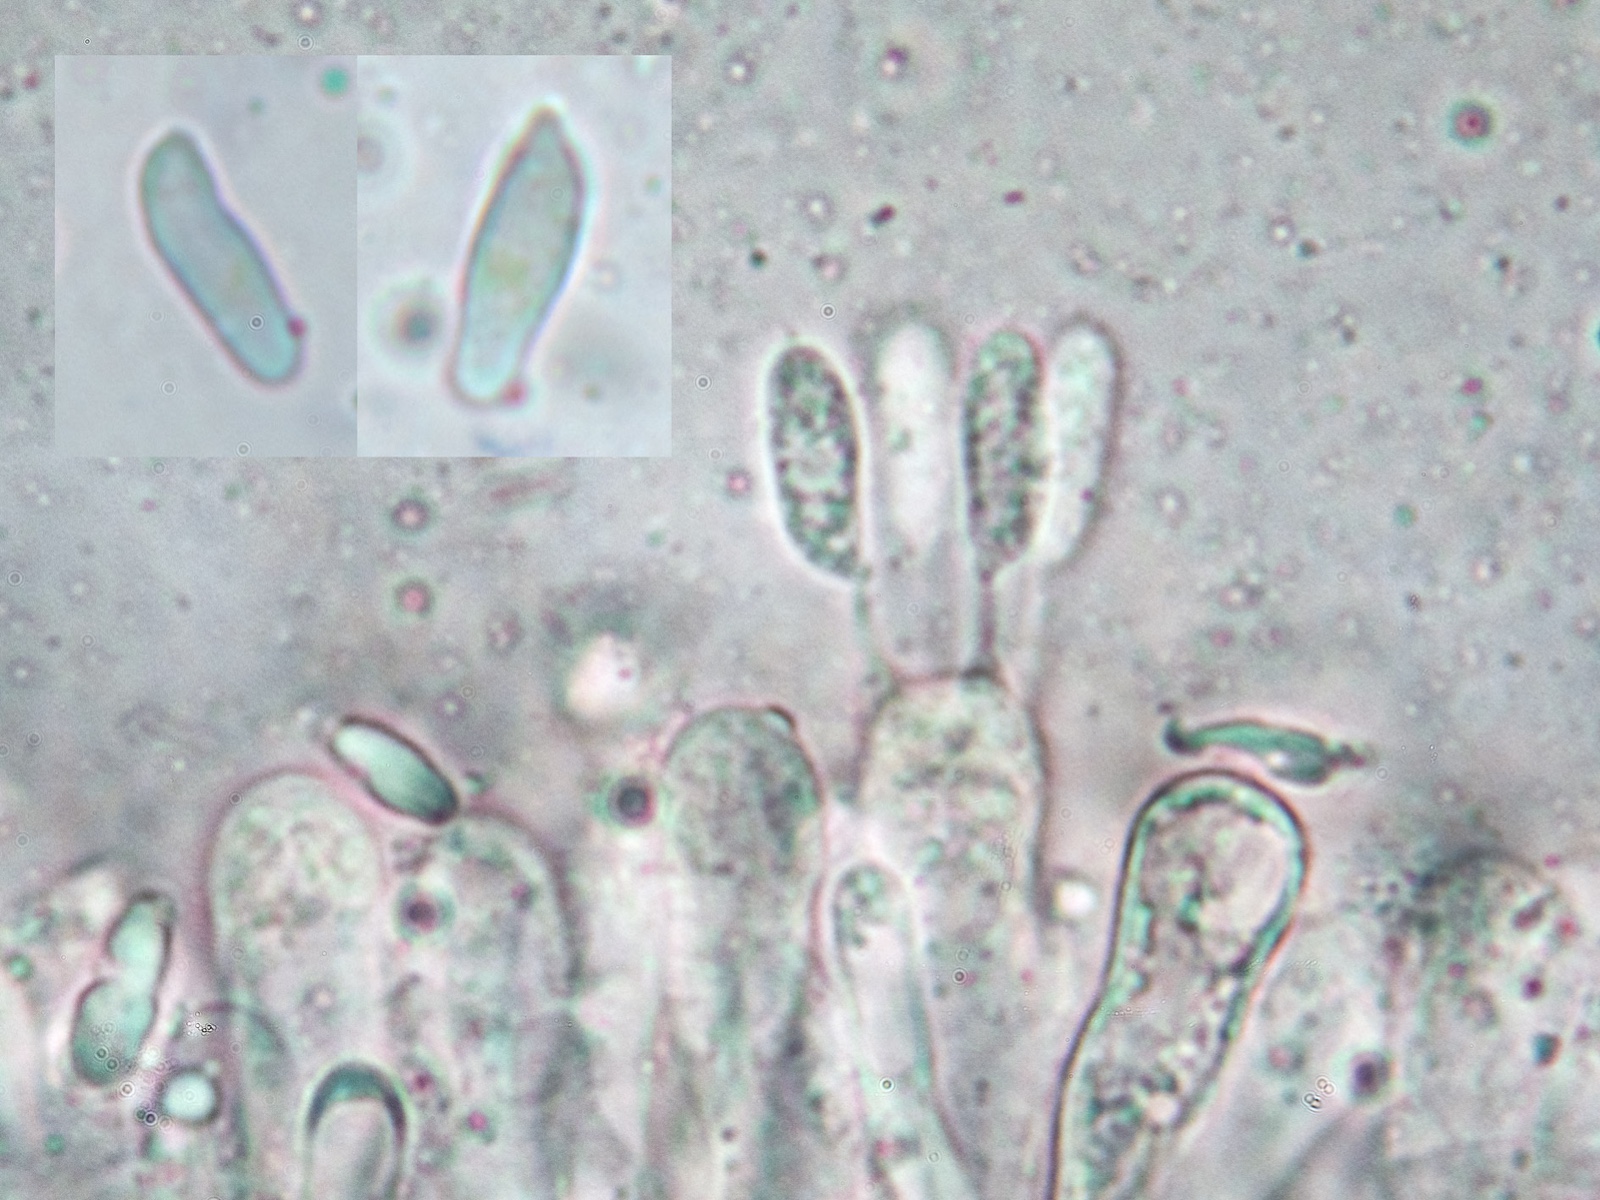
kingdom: Fungi
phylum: Basidiomycota
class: Agaricomycetes
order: Agaricales
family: Hygrophoraceae
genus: Cantharellula
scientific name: Cantharellula umbonata
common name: rødmende gaffelblad
